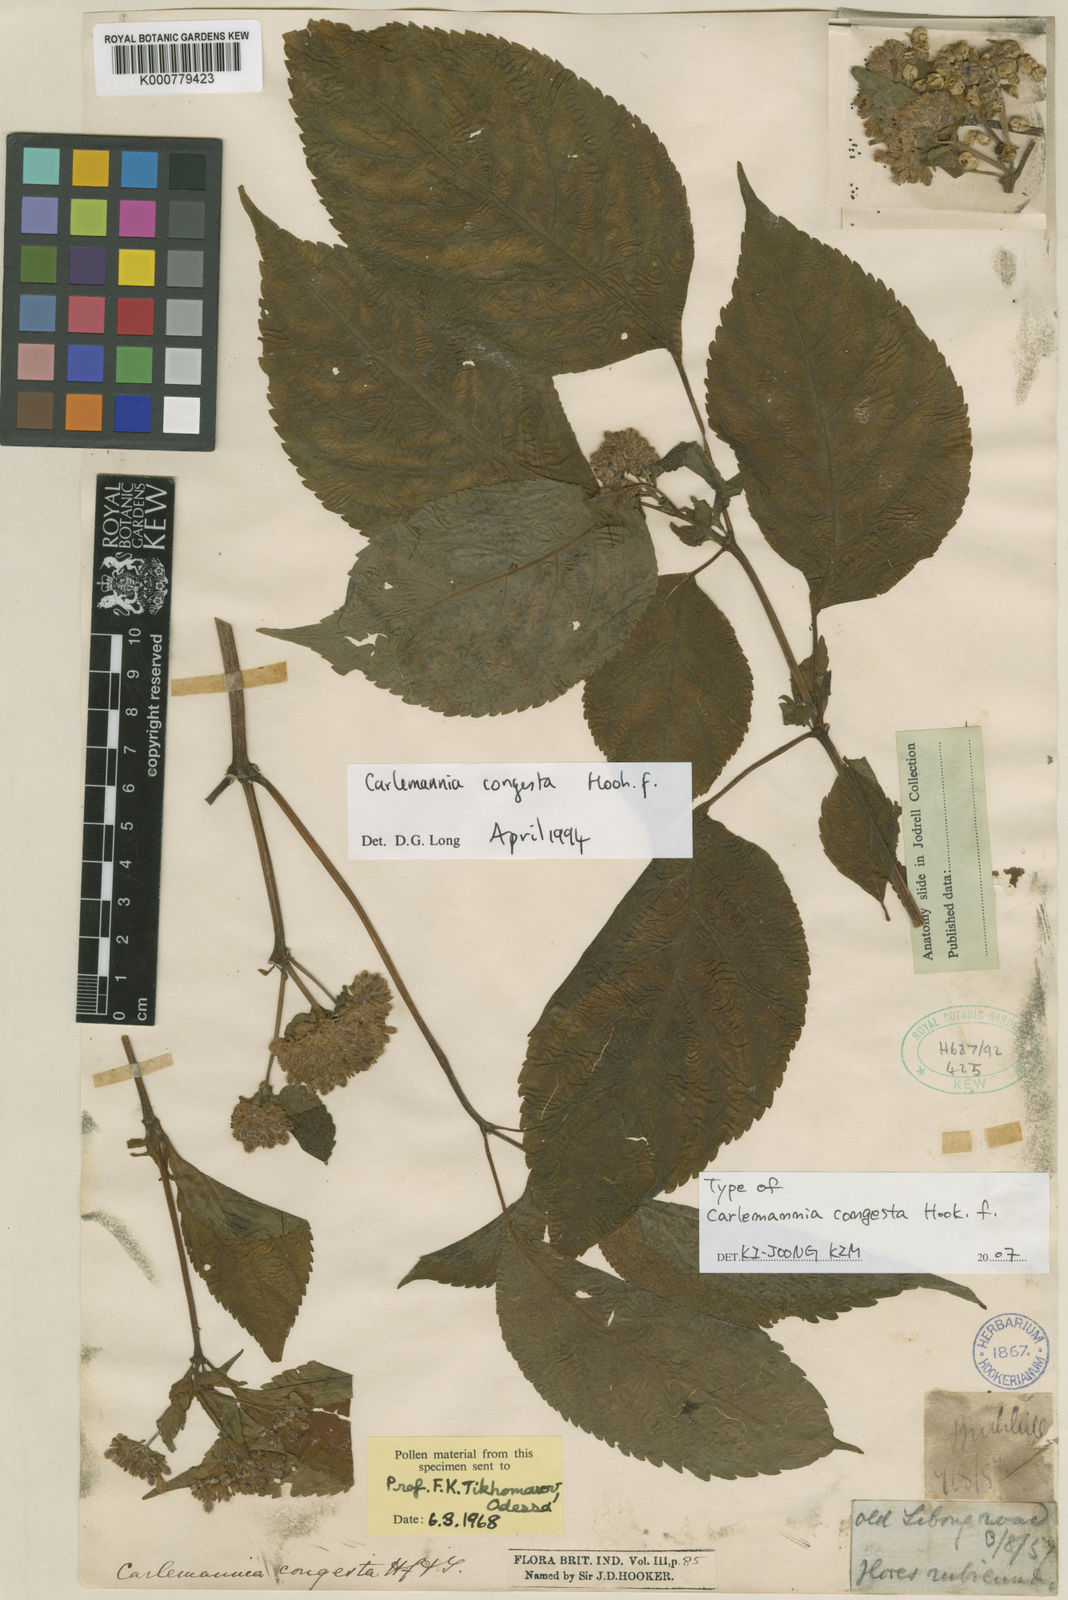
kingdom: Plantae
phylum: Tracheophyta
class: Magnoliopsida
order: Lamiales
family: Carlemanniaceae
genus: Carlemannia
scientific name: Carlemannia congesta
